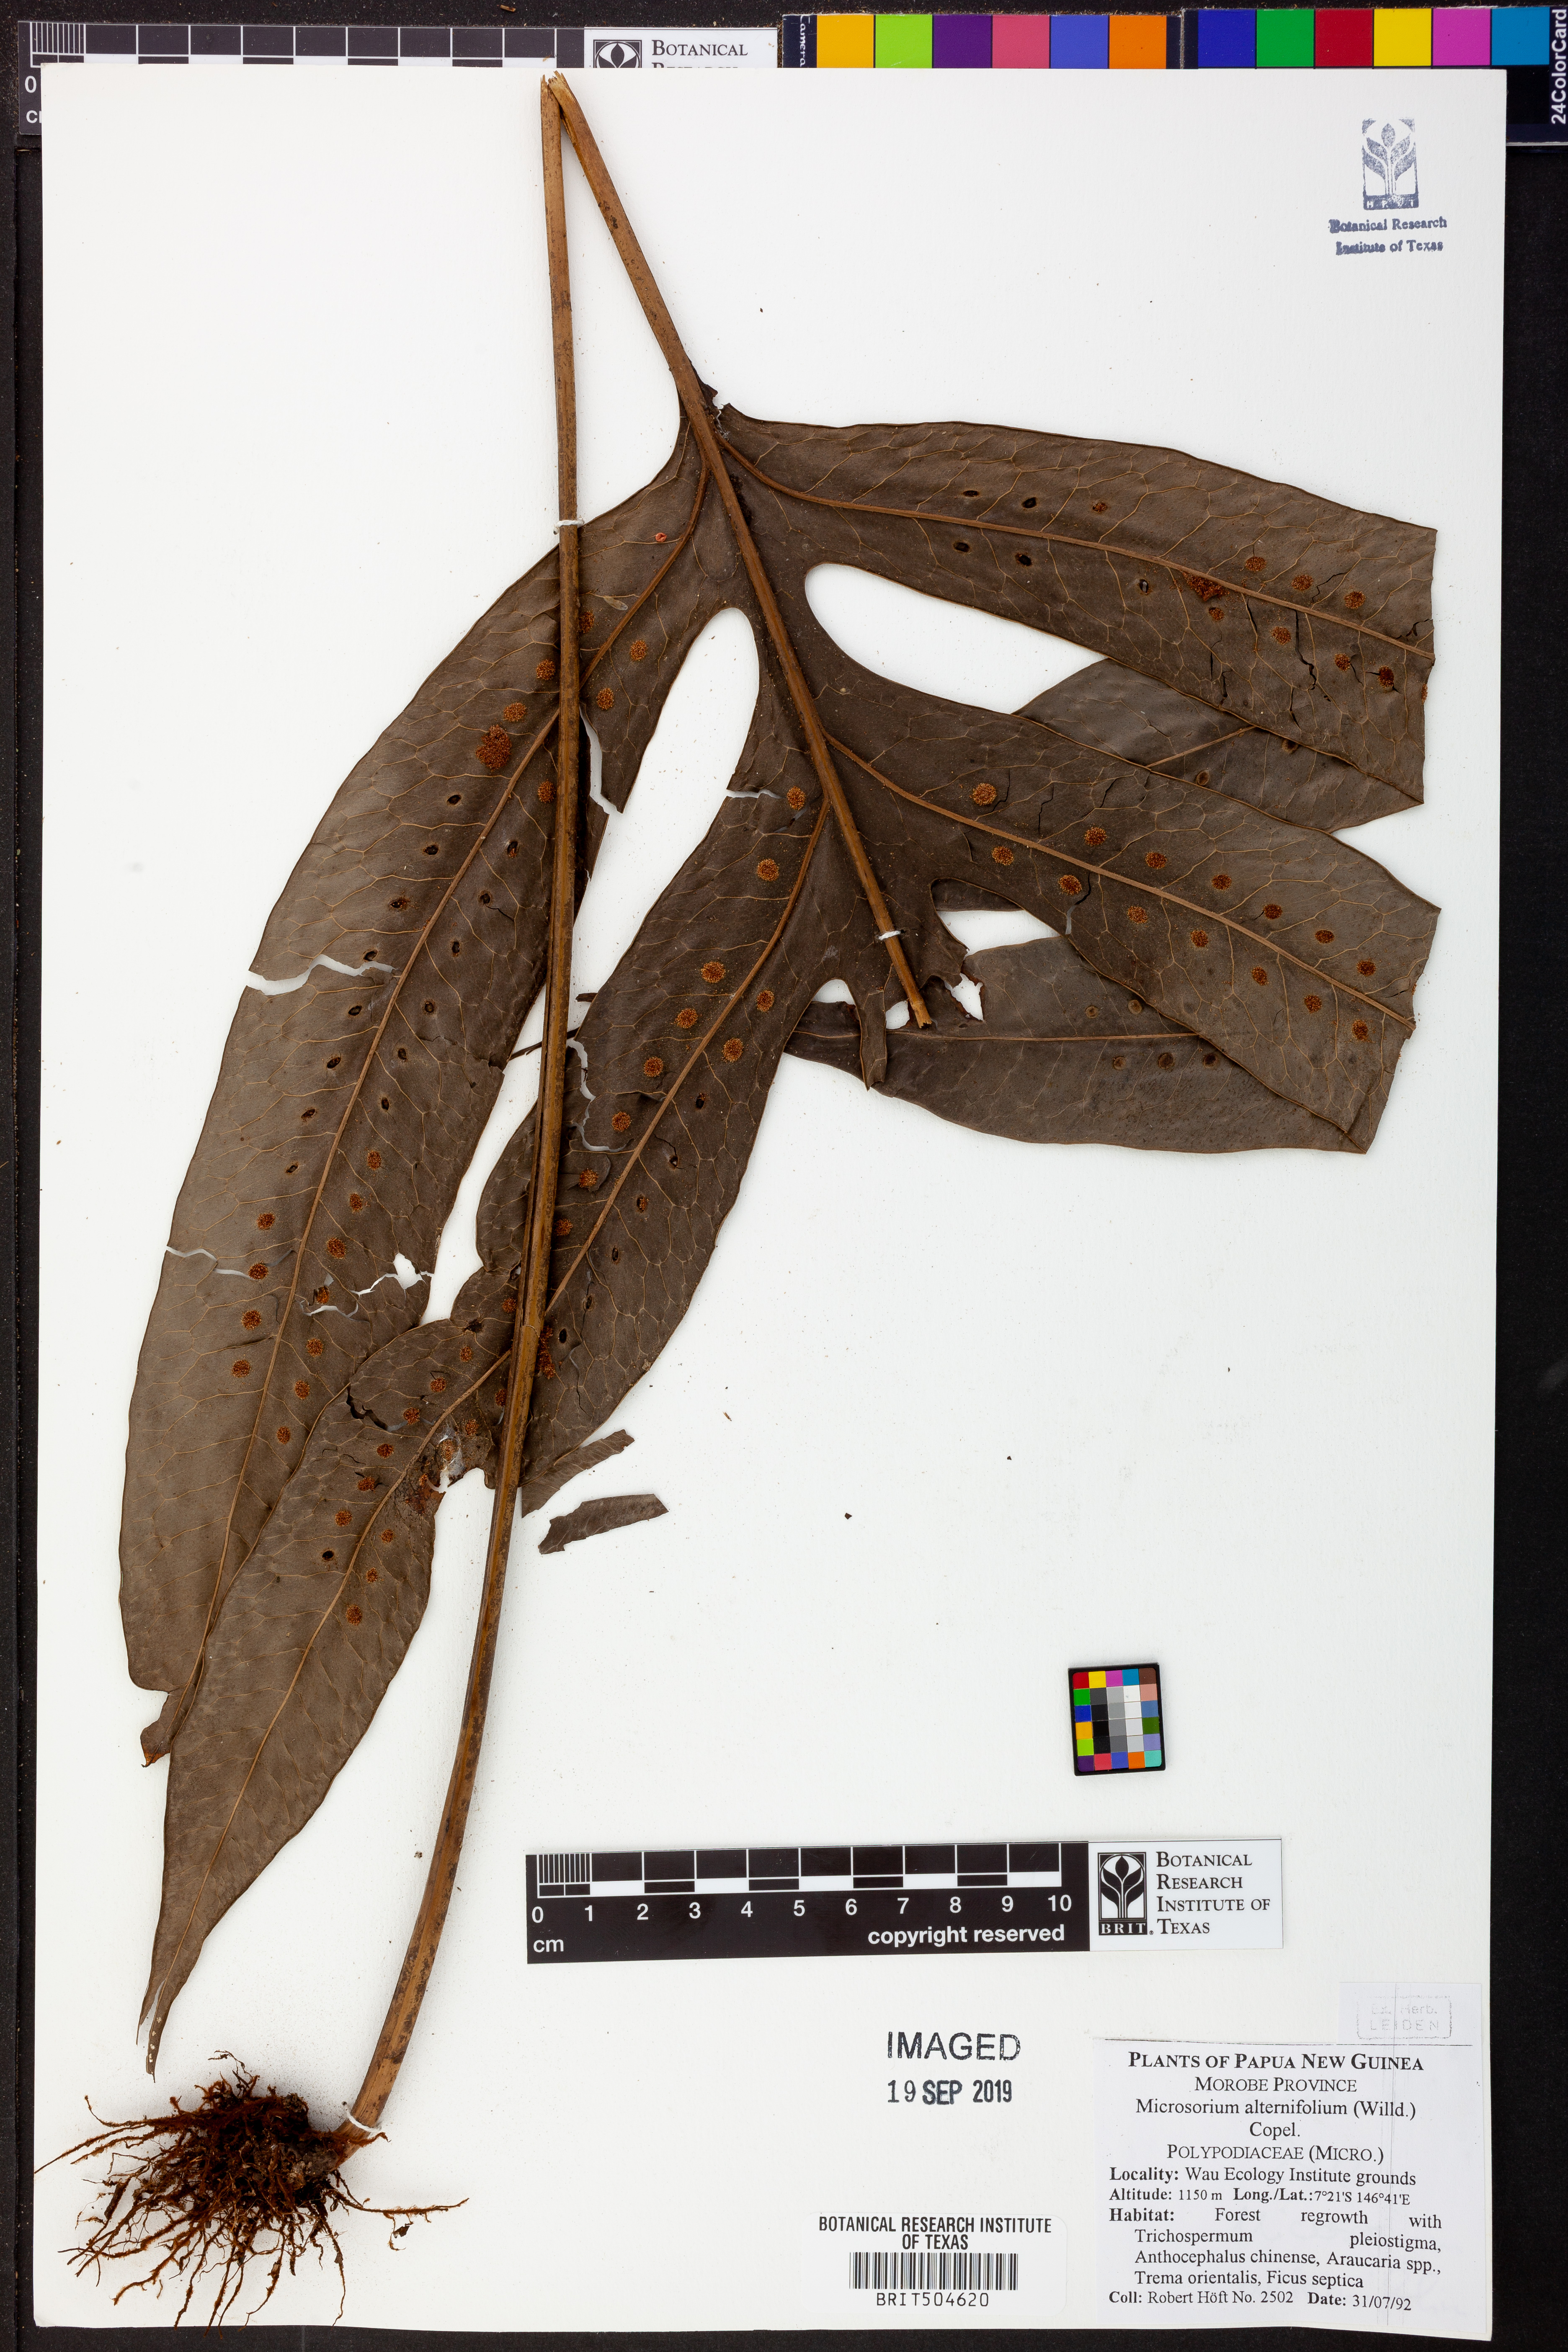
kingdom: Plantae
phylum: Tracheophyta
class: Polypodiopsida
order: Polypodiales
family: Polypodiaceae
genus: Microsorum
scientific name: Microsorum scolopendria
